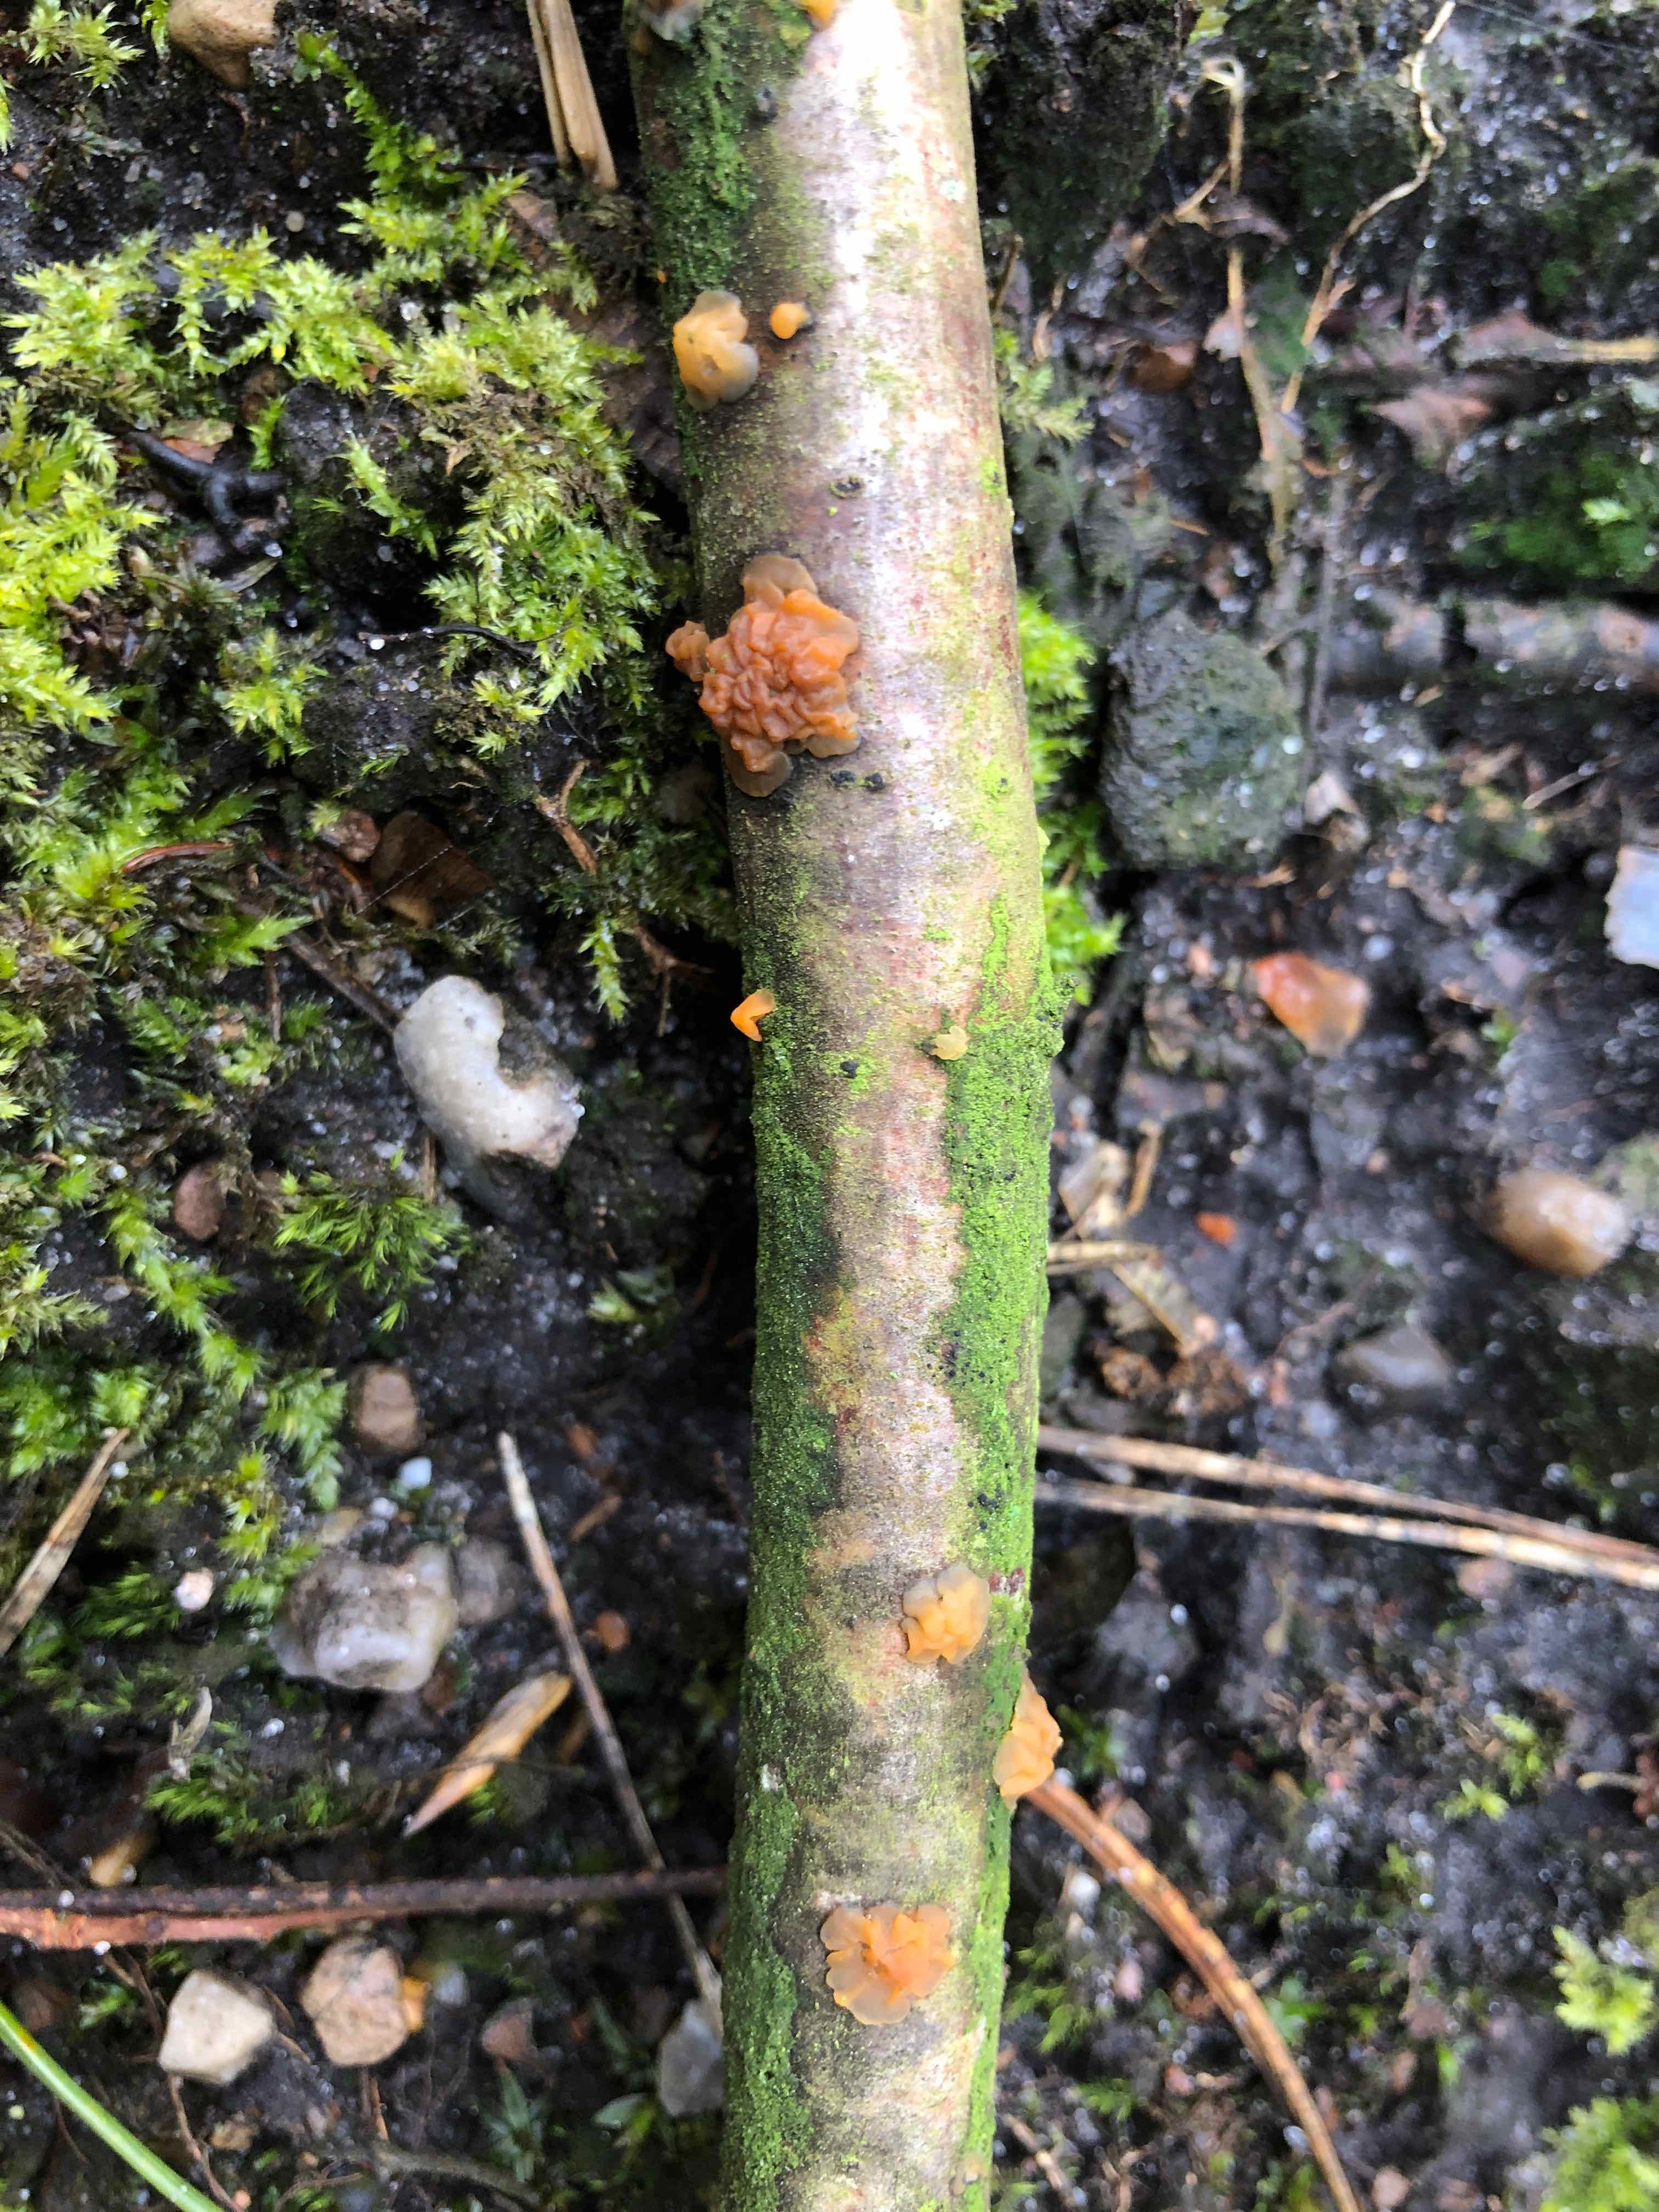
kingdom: Fungi
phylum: Basidiomycota
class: Dacrymycetes
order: Dacrymycetales
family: Dacrymycetaceae
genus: Dacrymyces
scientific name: Dacrymyces lacrymalis
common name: rynket tåresvamp
